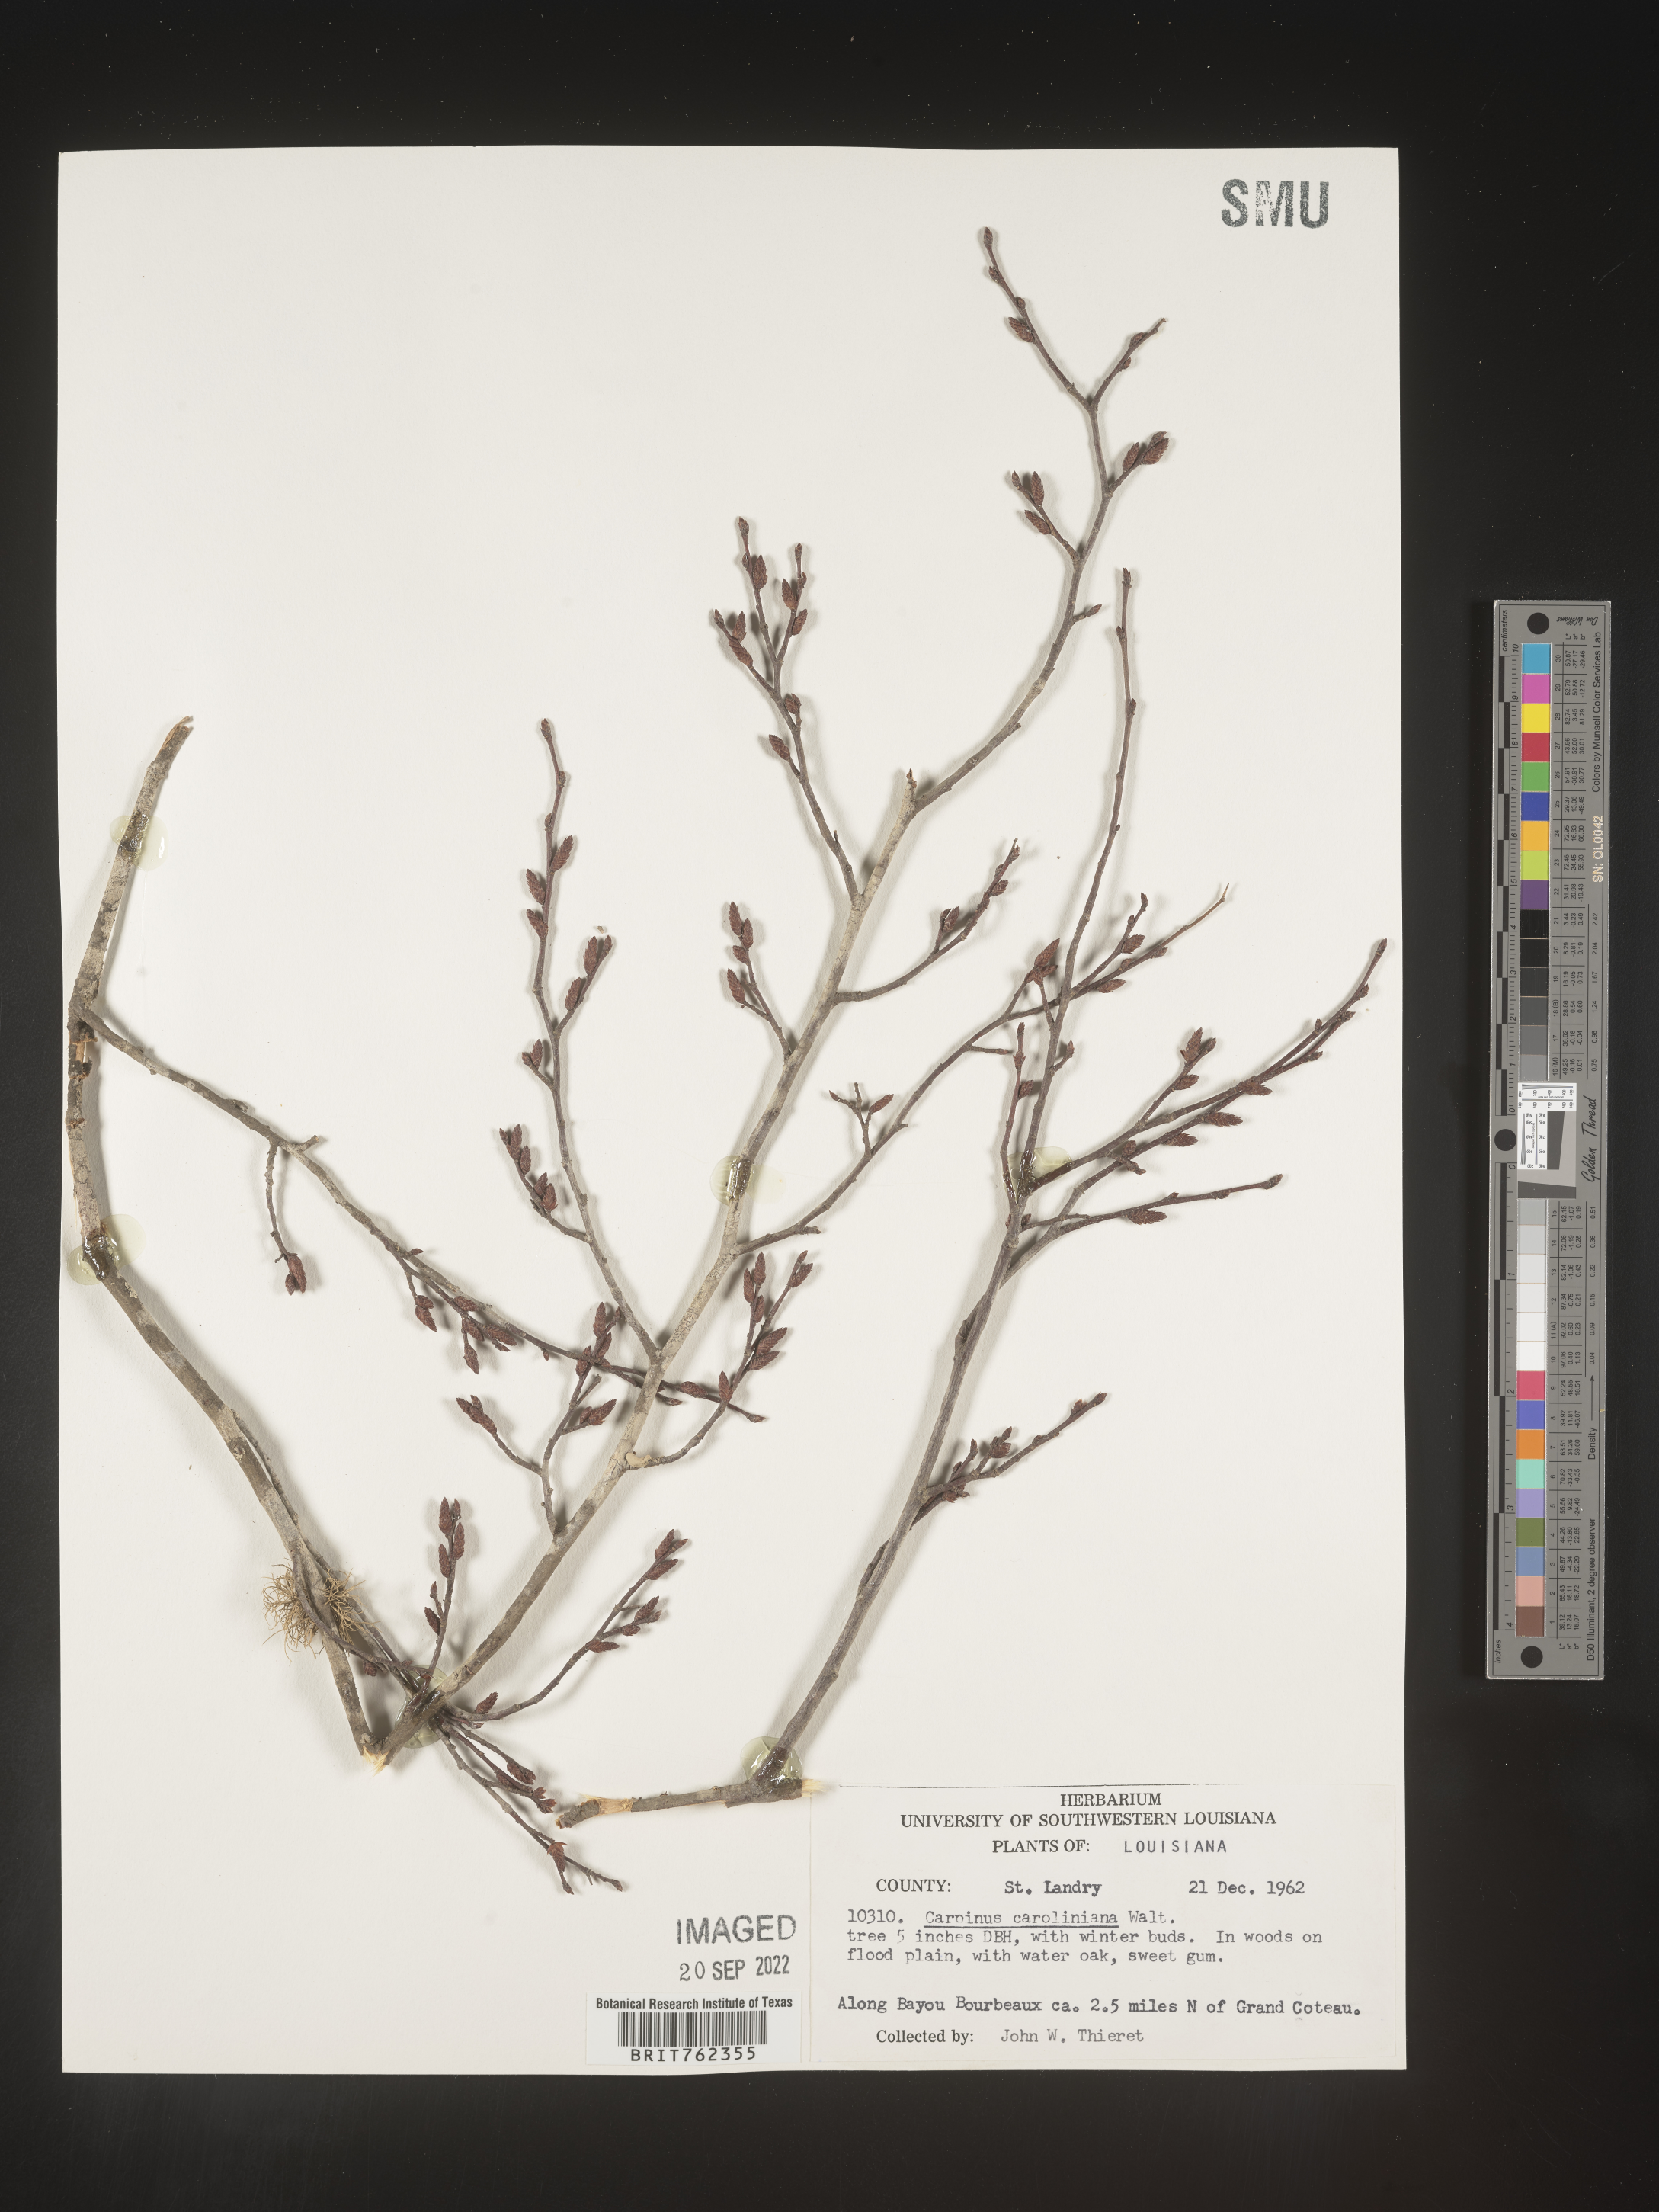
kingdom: Plantae
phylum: Tracheophyta
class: Magnoliopsida
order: Fagales
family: Betulaceae
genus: Carpinus
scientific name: Carpinus caroliniana
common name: American hornbeam
